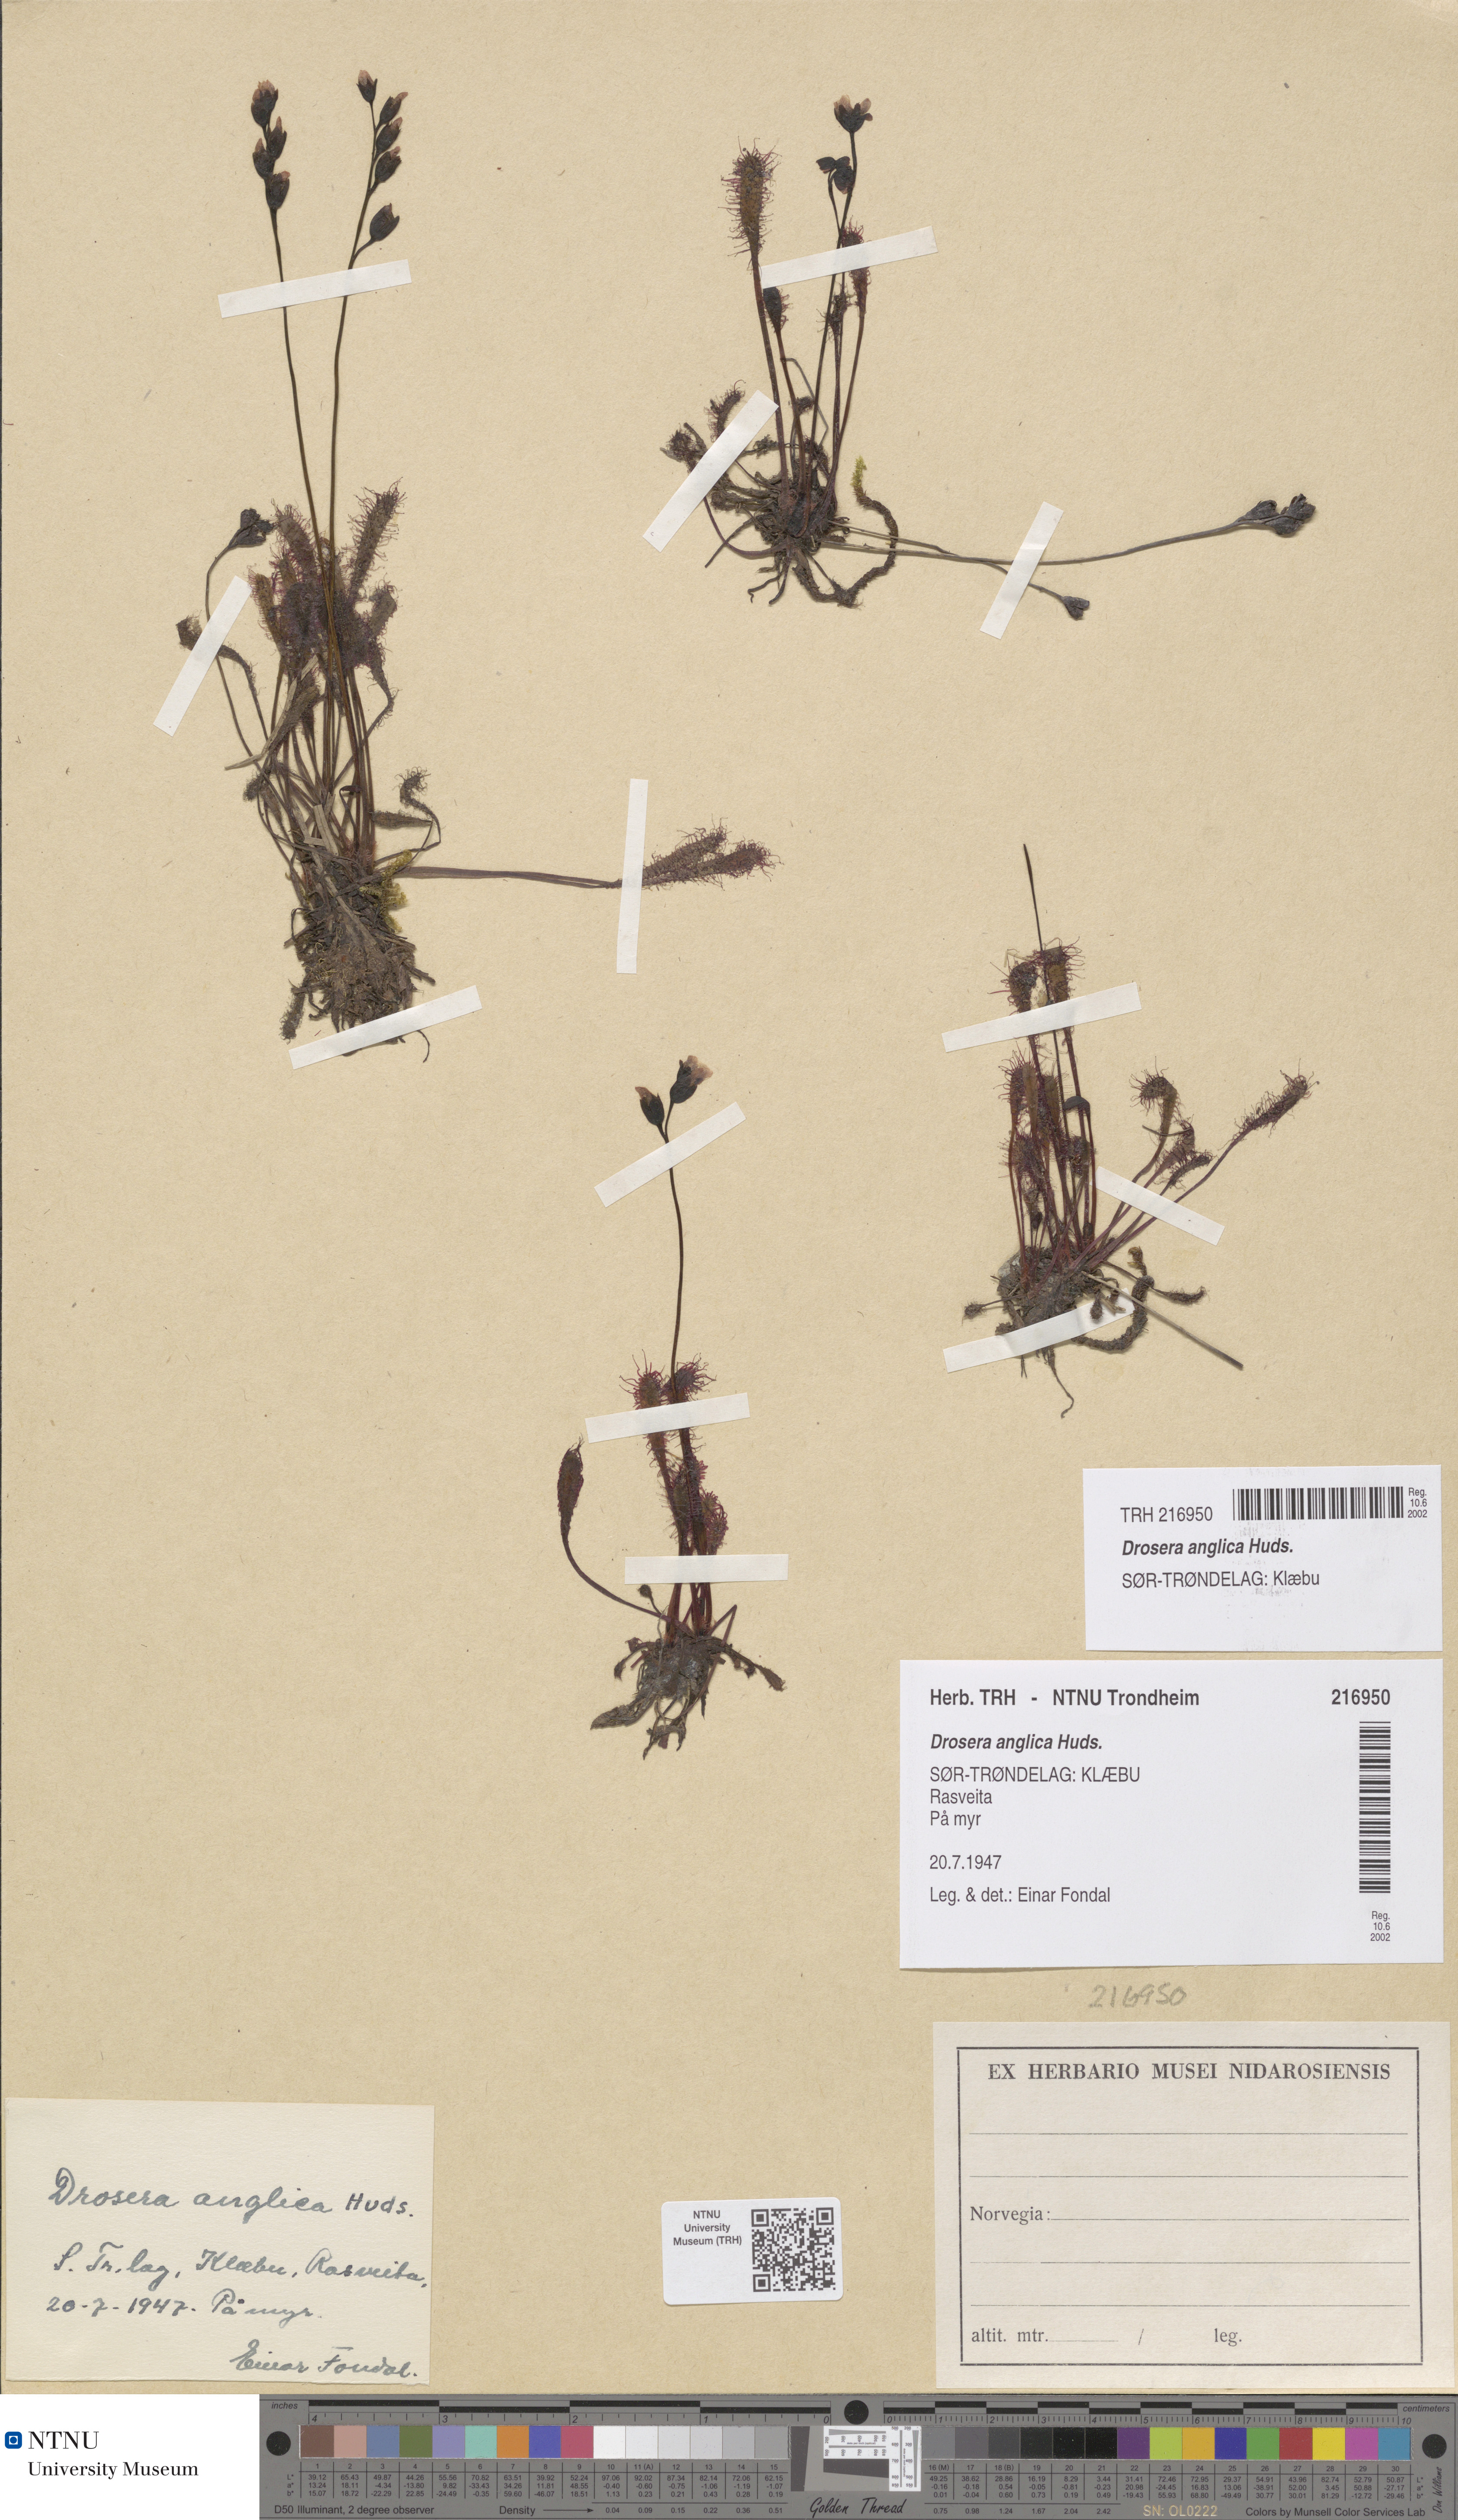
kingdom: Plantae
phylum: Tracheophyta
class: Magnoliopsida
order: Caryophyllales
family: Droseraceae
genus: Drosera
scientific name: Drosera anglica
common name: Great sundew
